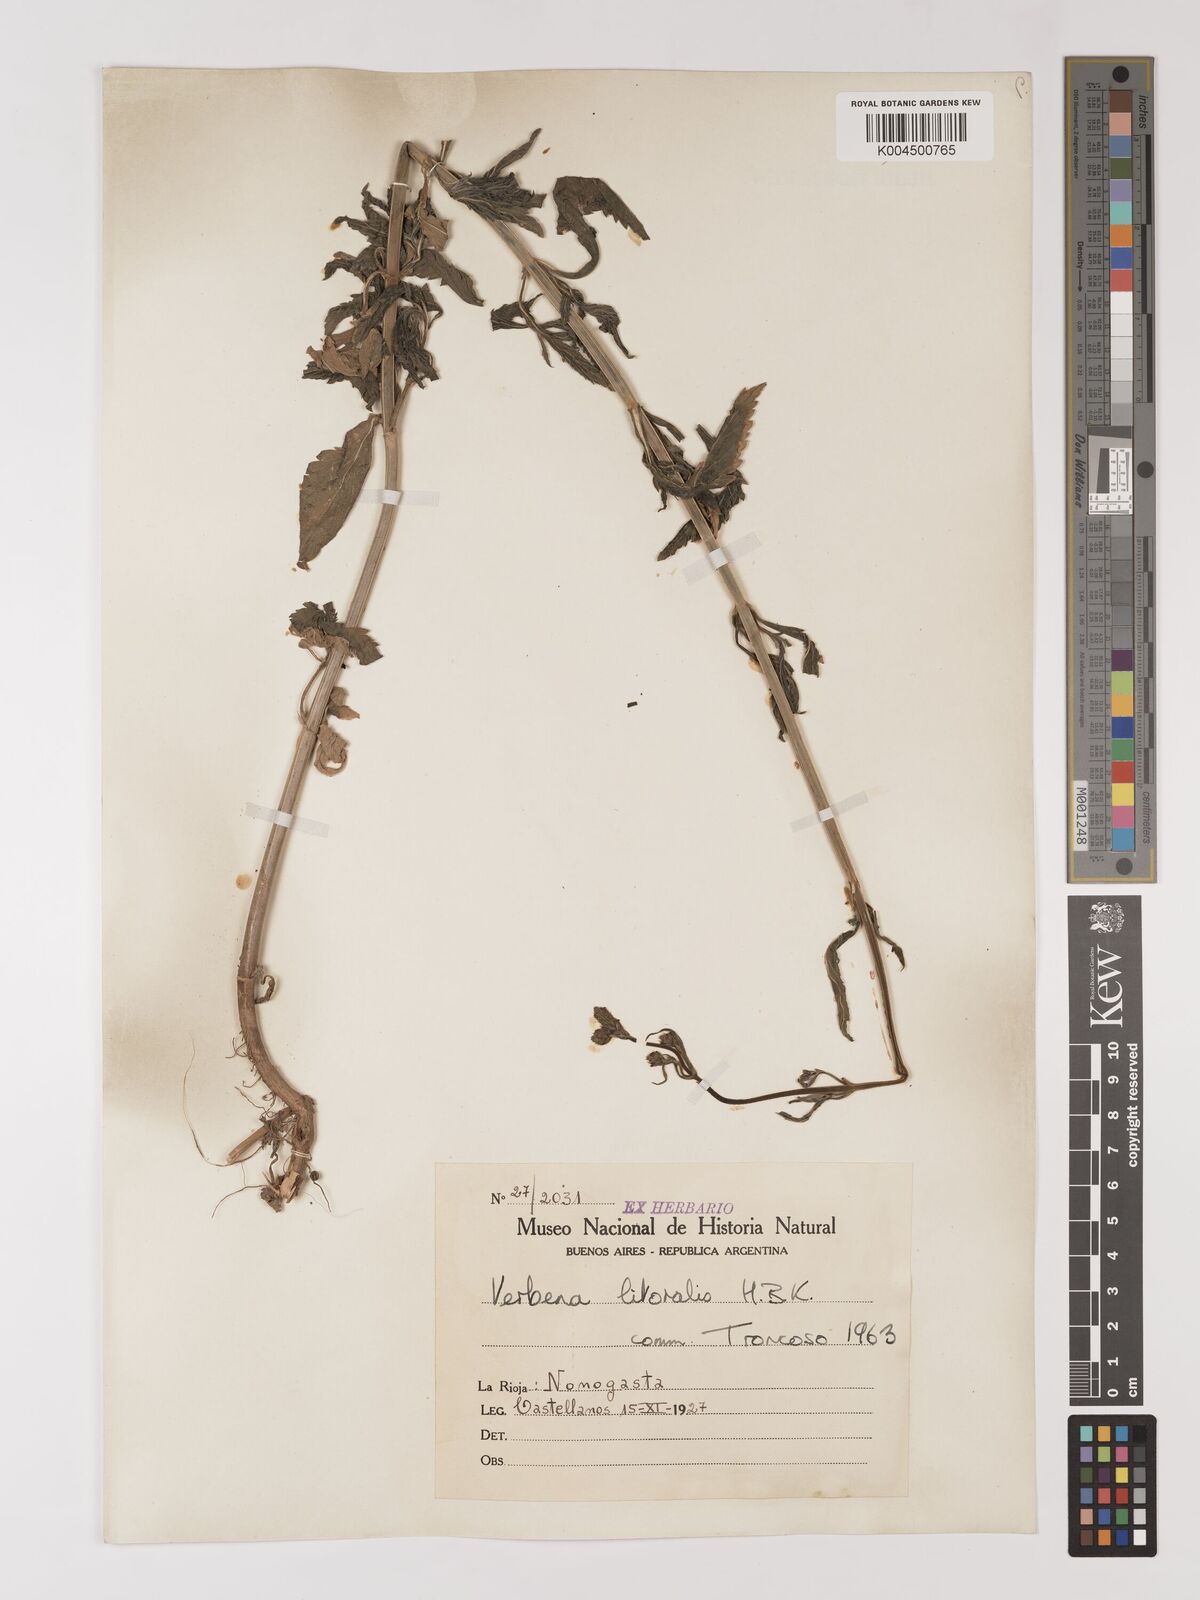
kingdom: Plantae
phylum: Tracheophyta
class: Magnoliopsida
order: Lamiales
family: Verbenaceae
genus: Verbena
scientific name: Verbena litoralis
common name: Seashore vervain
